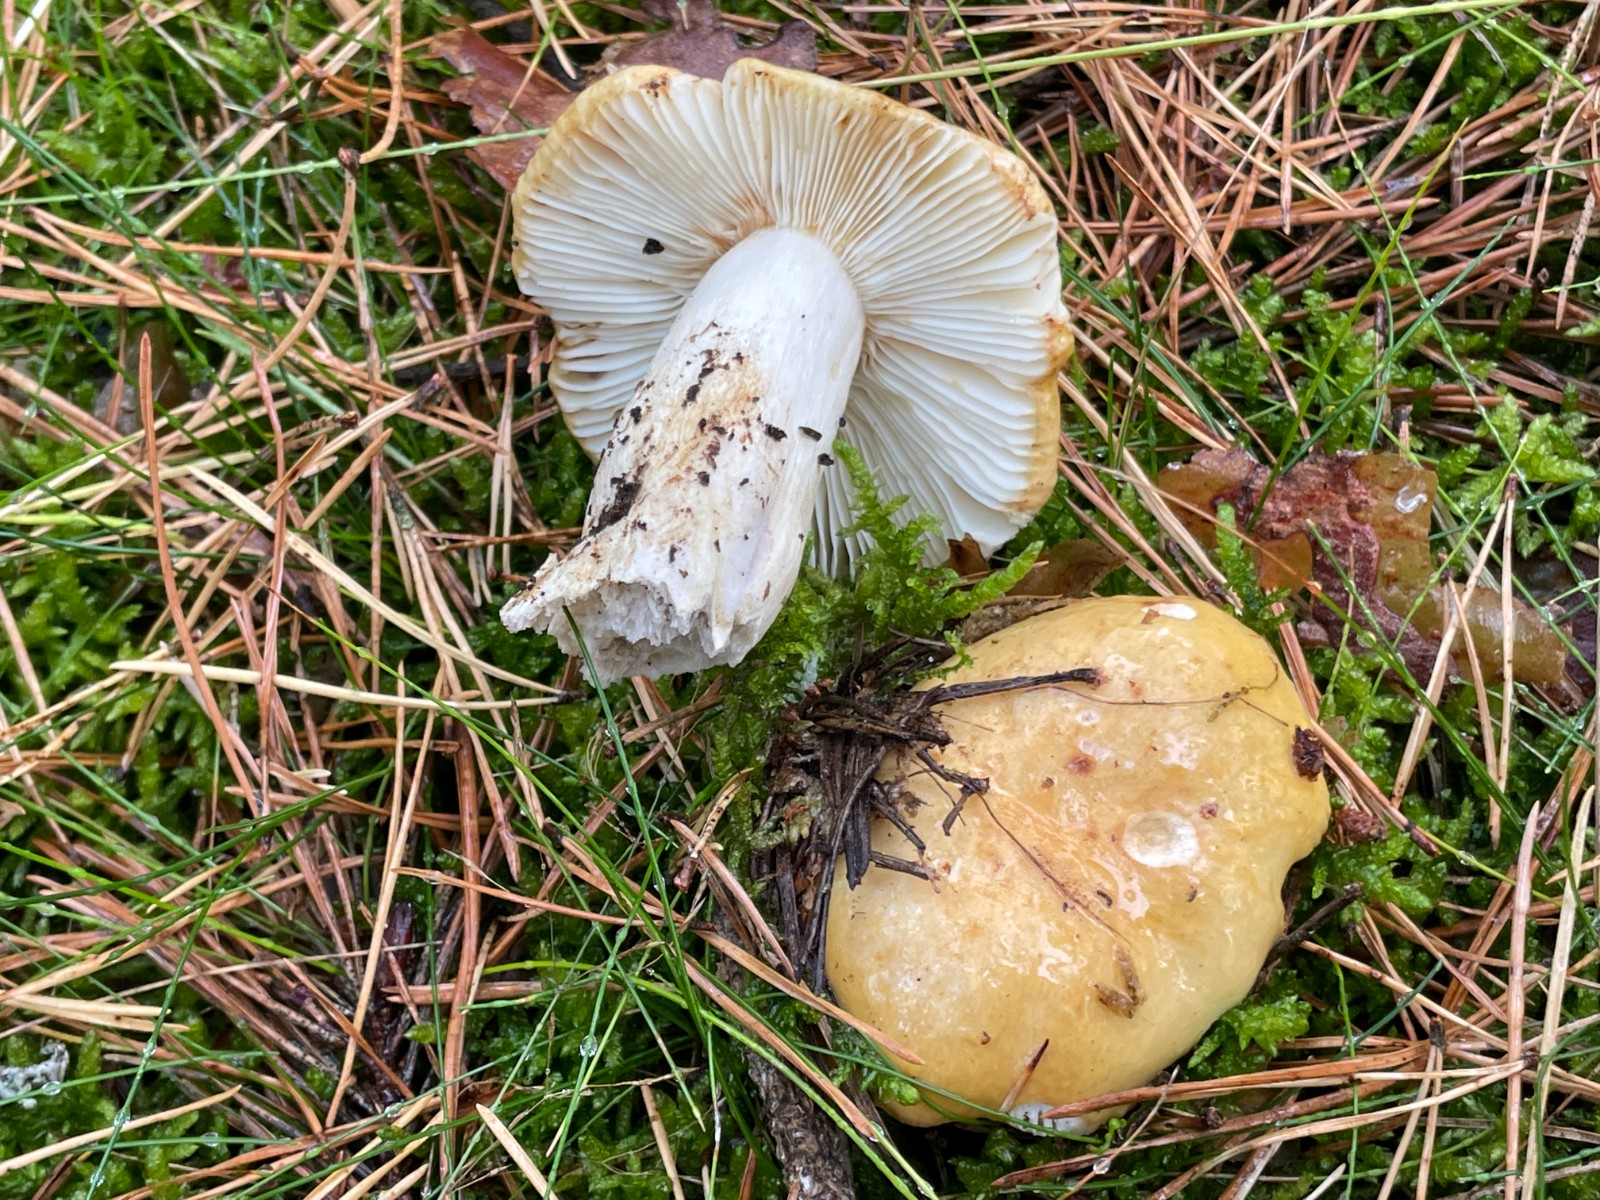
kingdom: Fungi
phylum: Basidiomycota
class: Agaricomycetes
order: Russulales
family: Russulaceae
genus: Russula
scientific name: Russula ochroleuca
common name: okkergul skørhat
